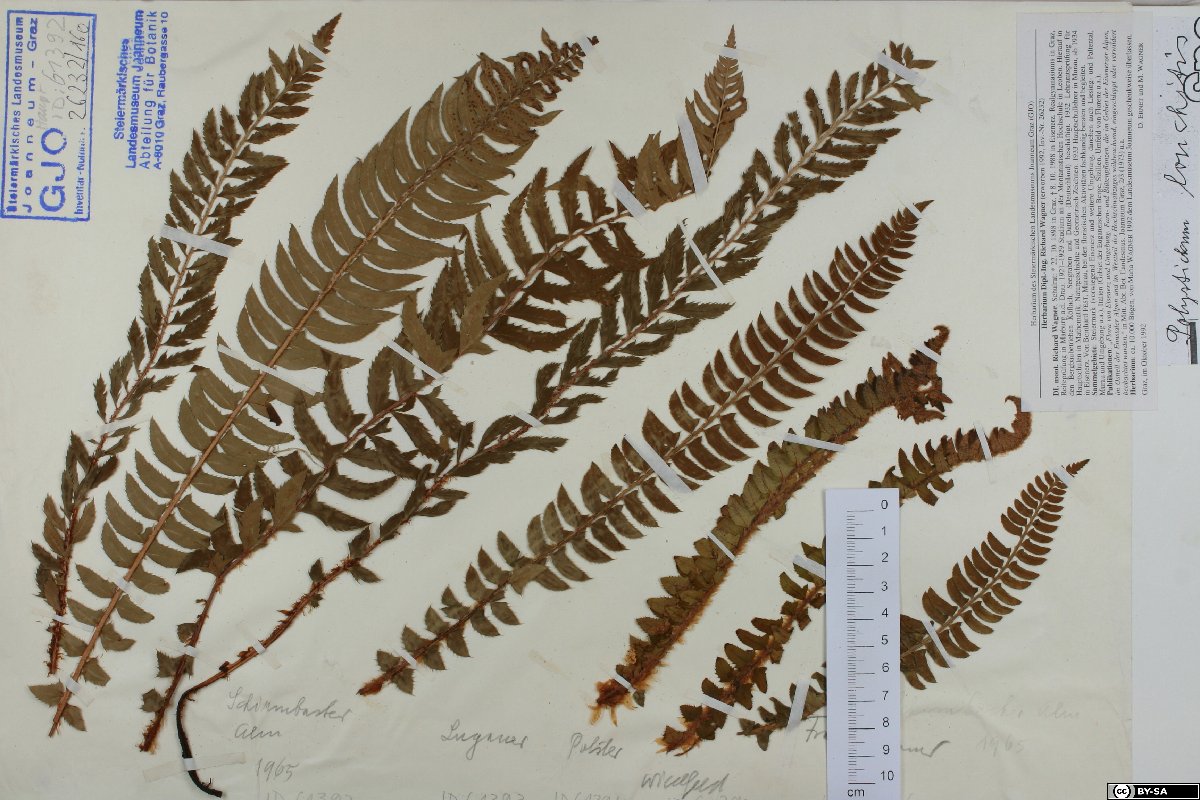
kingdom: Plantae
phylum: Tracheophyta
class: Polypodiopsida
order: Polypodiales
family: Dryopteridaceae
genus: Polystichum
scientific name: Polystichum lonchitis
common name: Holly fern
